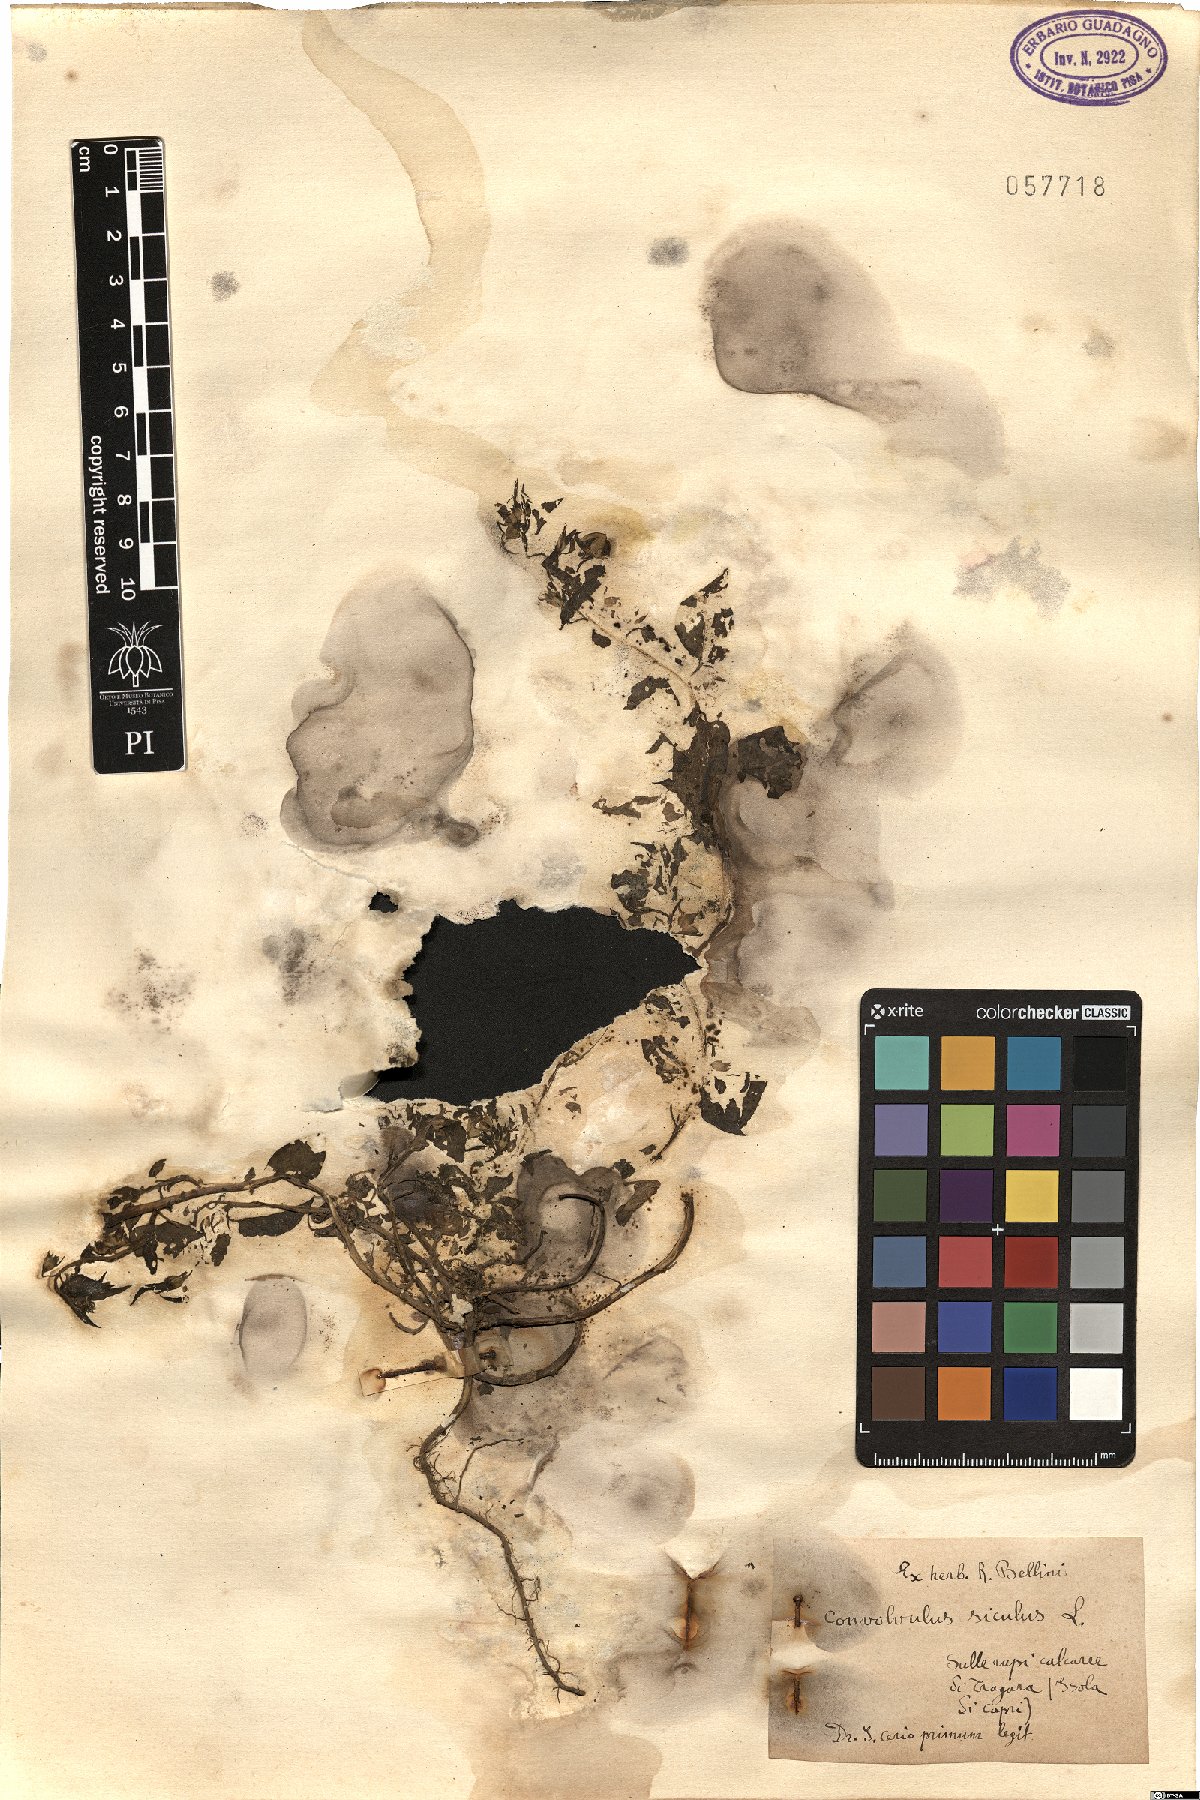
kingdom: Plantae
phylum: Tracheophyta
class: Magnoliopsida
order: Solanales
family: Convolvulaceae
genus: Convolvulus
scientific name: Convolvulus siculus
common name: Small blue-convolvulus
